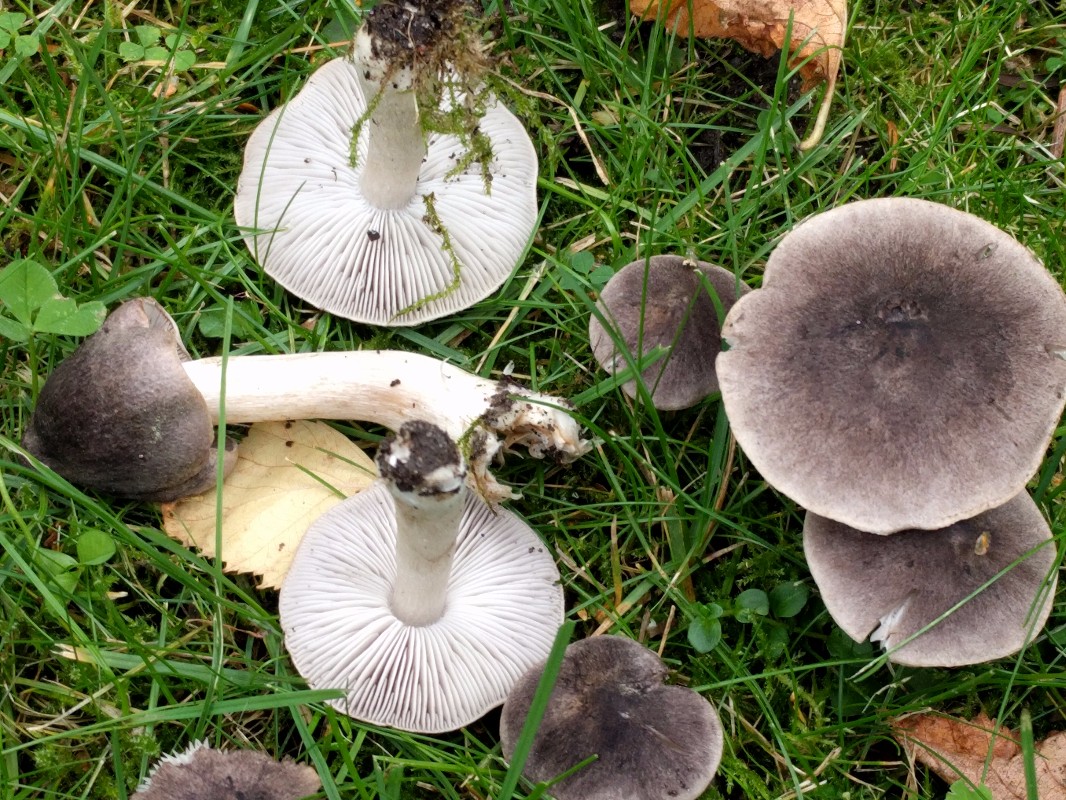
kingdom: Fungi
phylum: Basidiomycota
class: Agaricomycetes
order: Agaricales
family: Tricholomataceae
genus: Tricholoma
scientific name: Tricholoma terreum
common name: jordfarvet ridderhat
